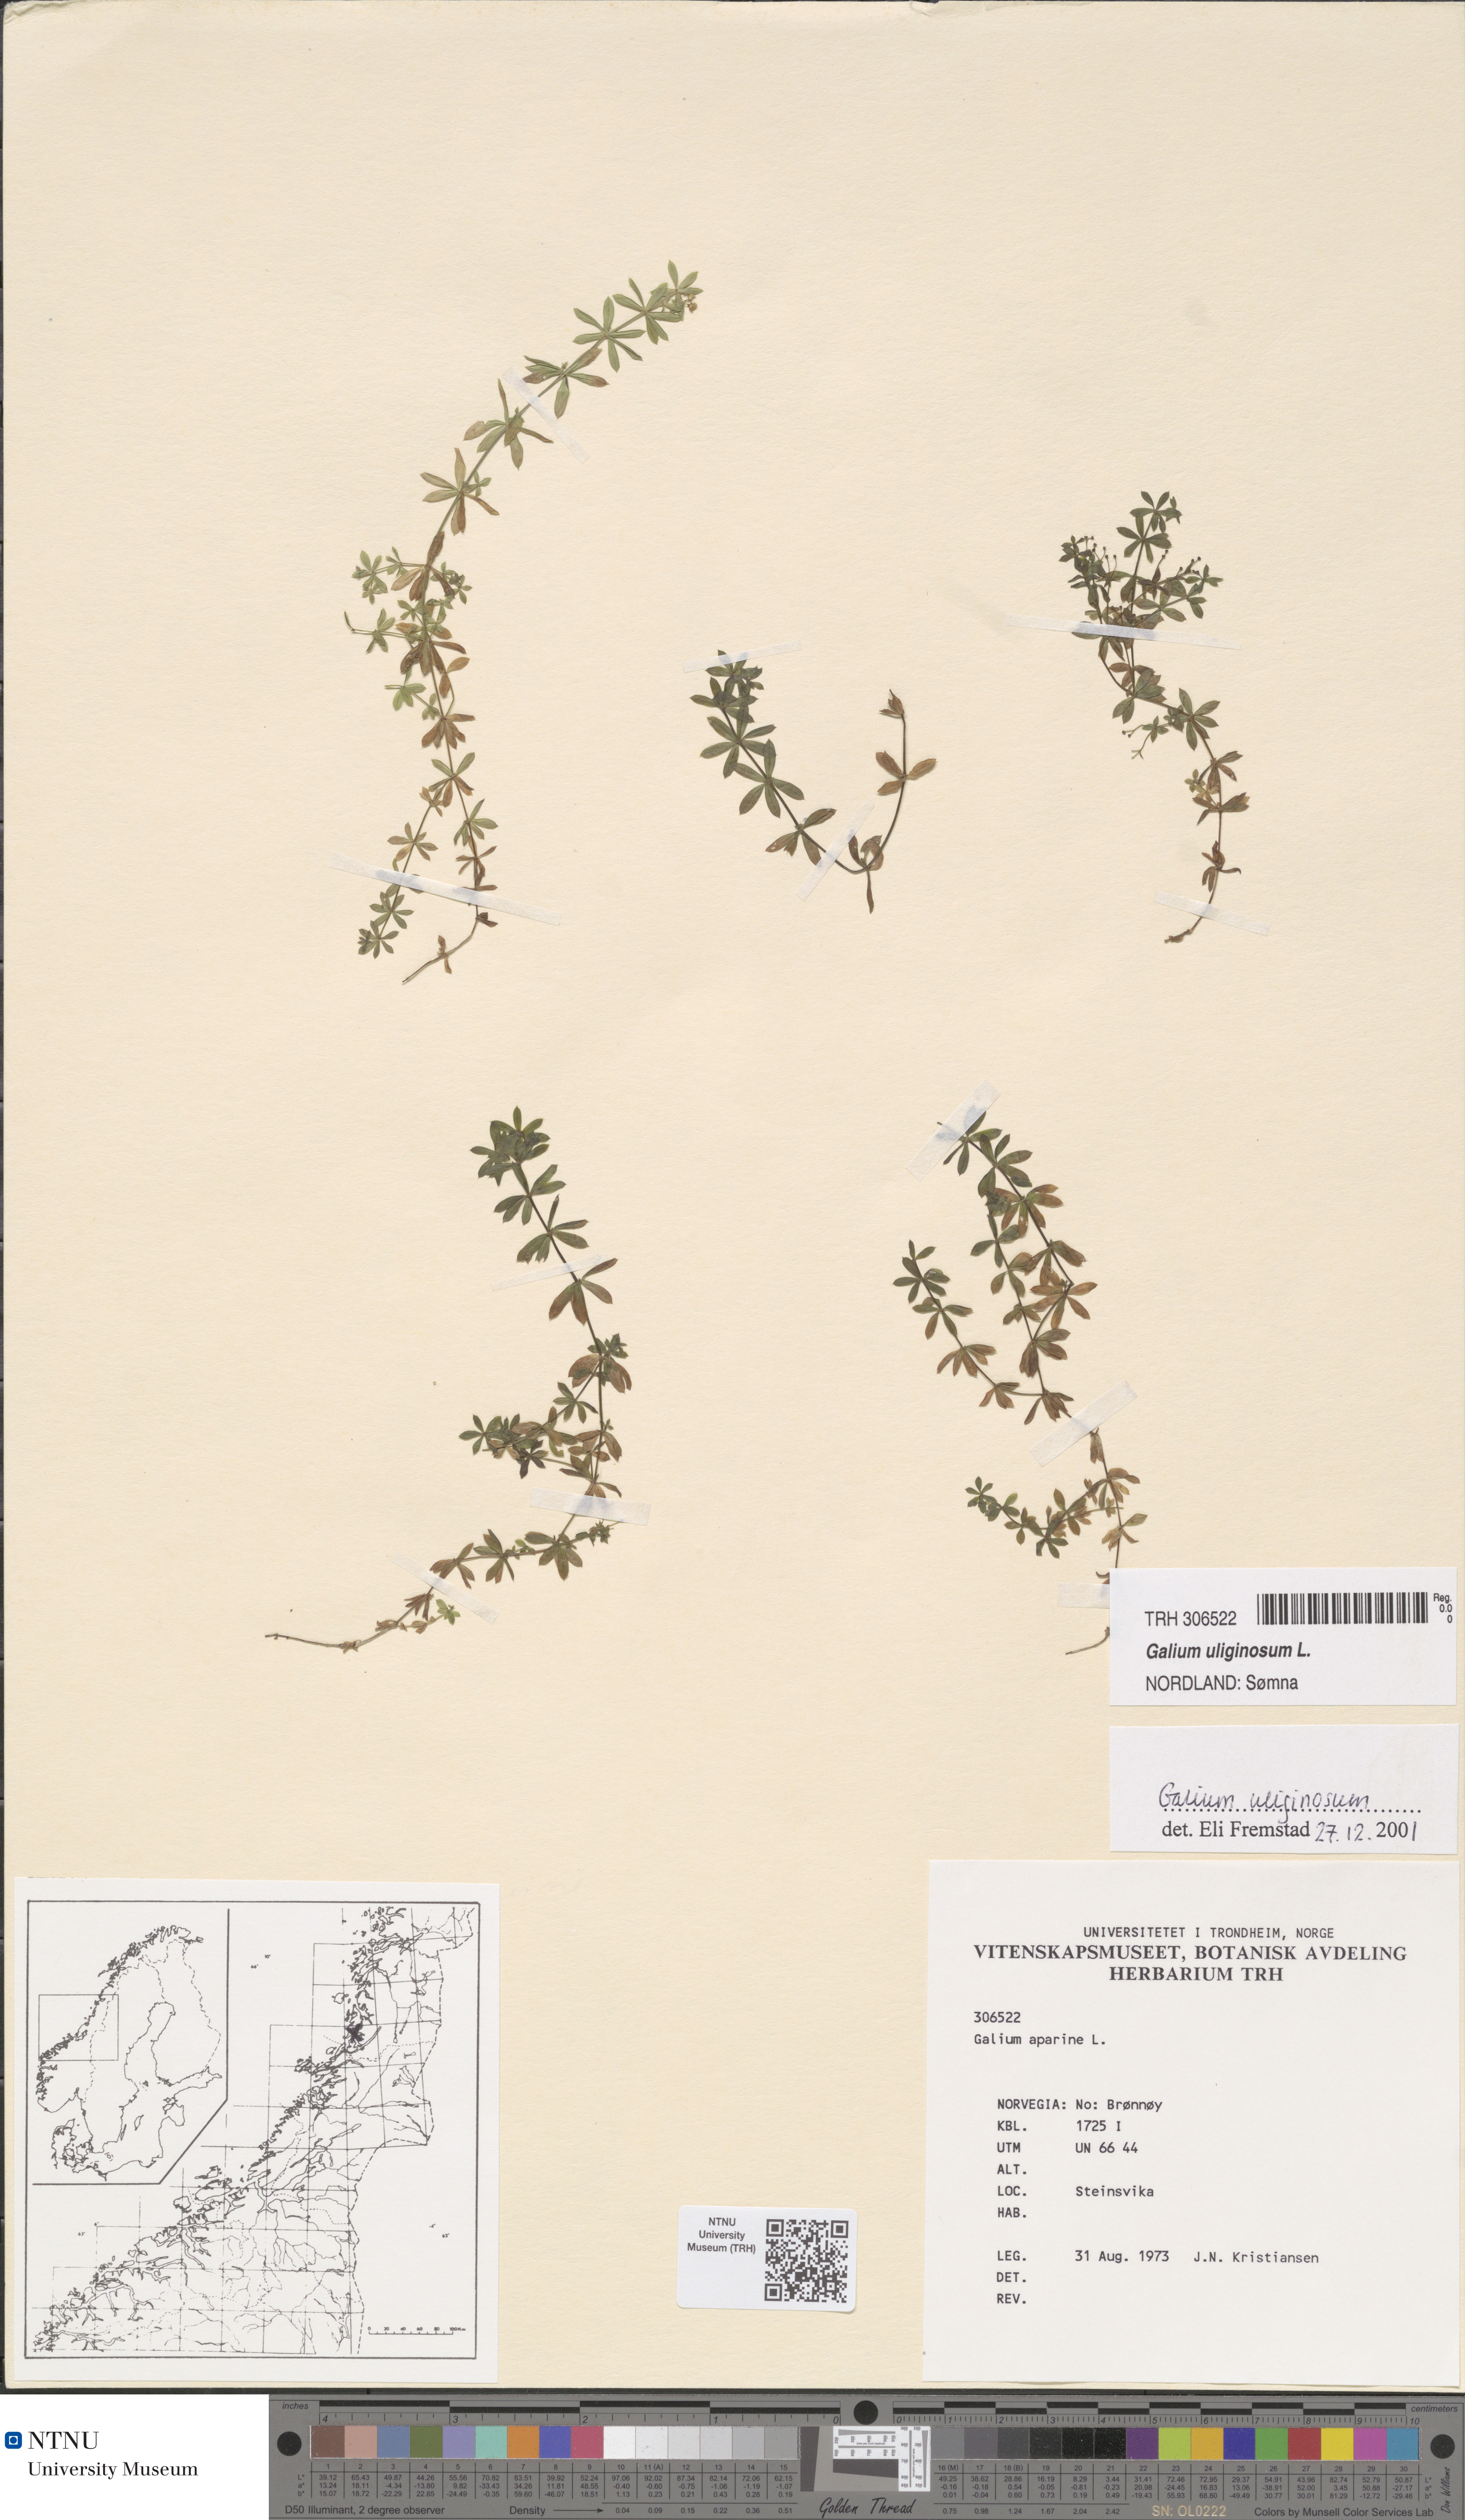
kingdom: Plantae
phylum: Tracheophyta
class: Magnoliopsida
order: Gentianales
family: Rubiaceae
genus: Galium
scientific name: Galium uliginosum
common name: Fen bedstraw
